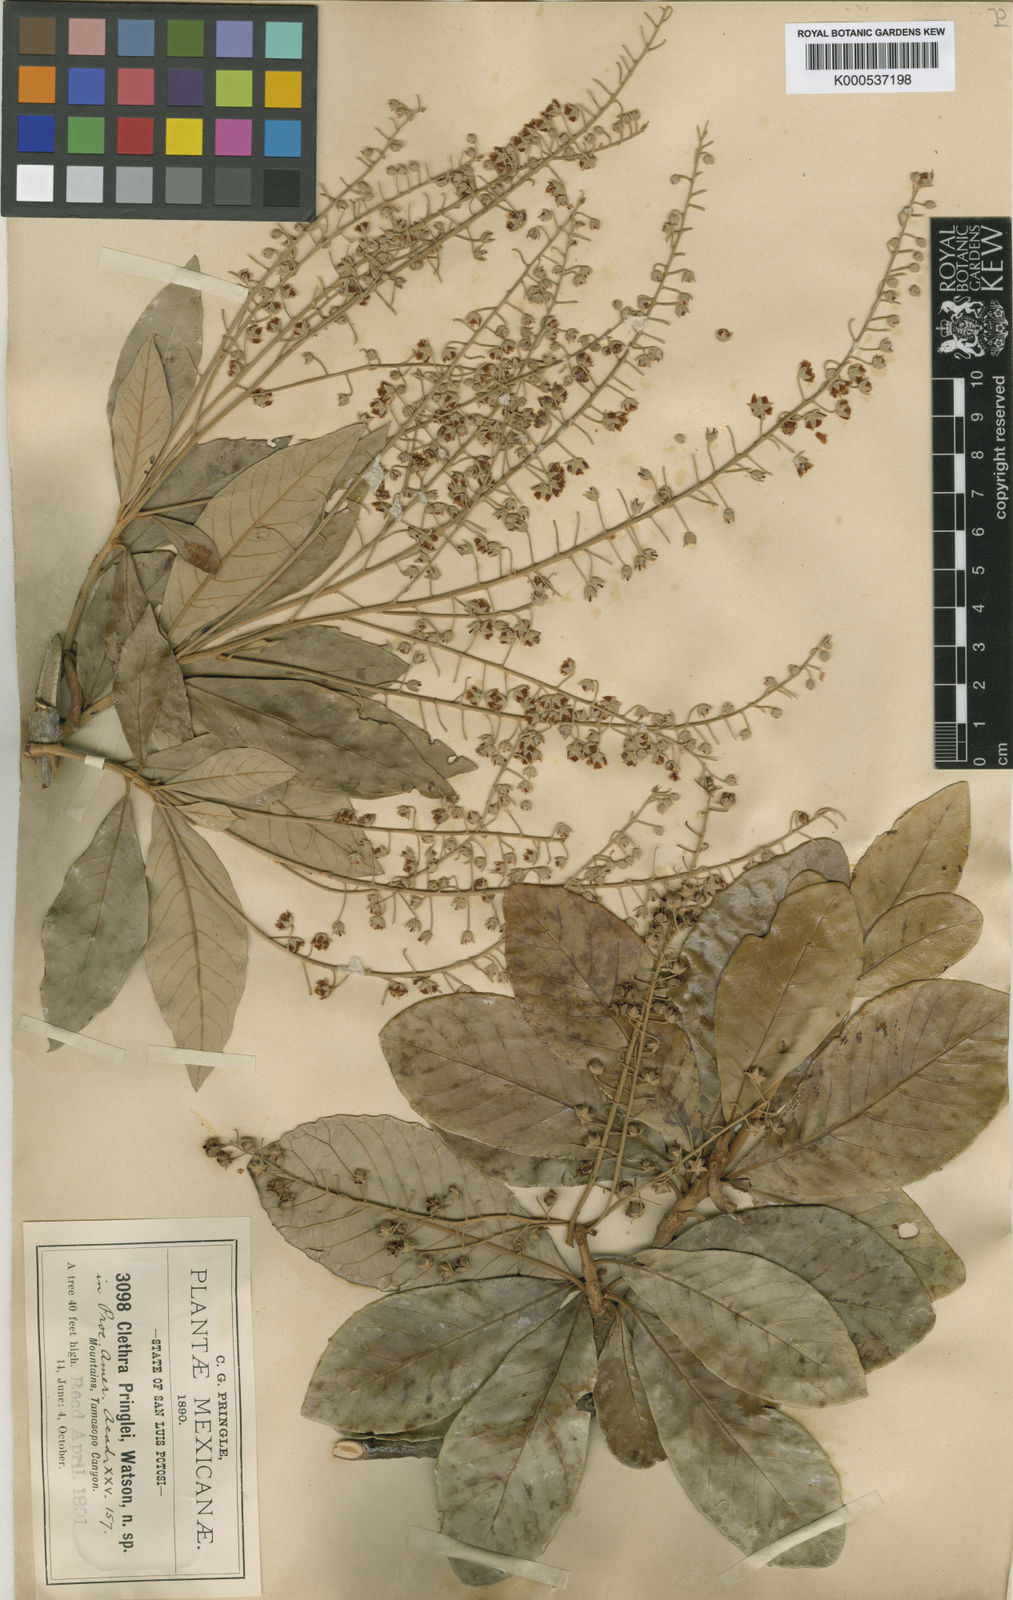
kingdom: Plantae
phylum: Tracheophyta
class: Magnoliopsida
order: Ericales
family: Clethraceae
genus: Clethra
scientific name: Clethra pringlei
